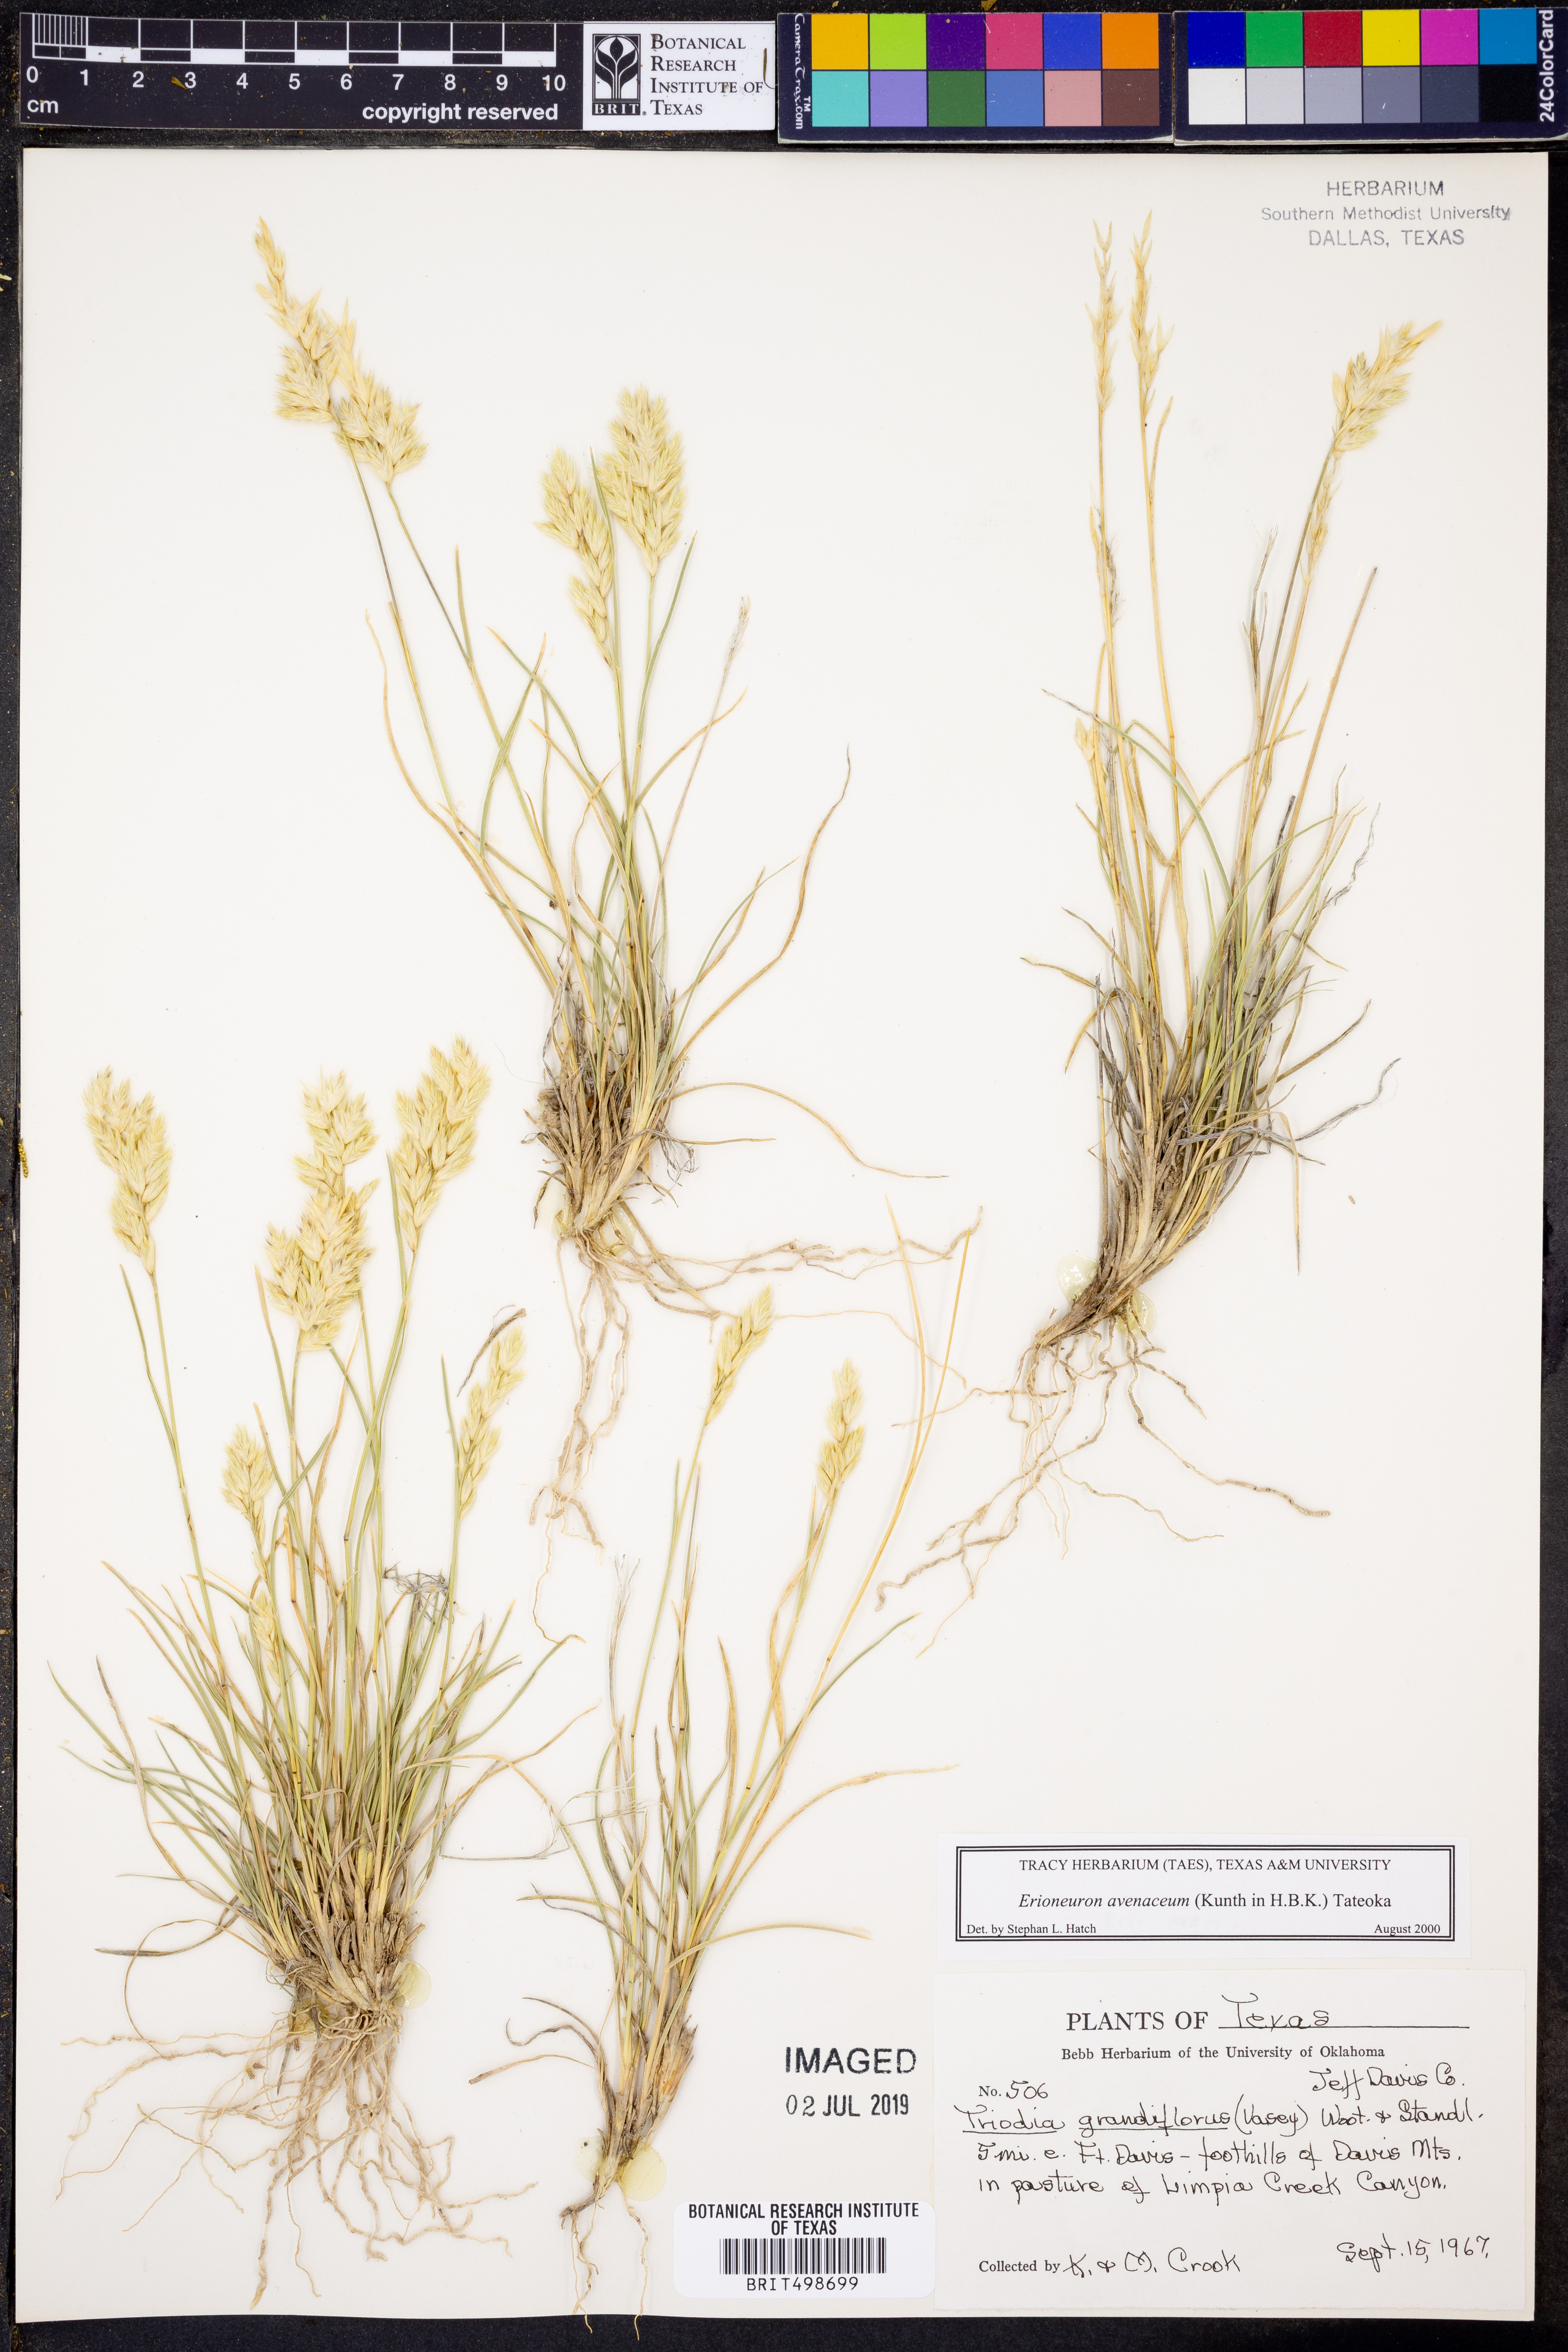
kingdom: Plantae
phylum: Tracheophyta
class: Liliopsida
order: Poales
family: Poaceae
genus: Erioneuron
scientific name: Erioneuron avenaceum
